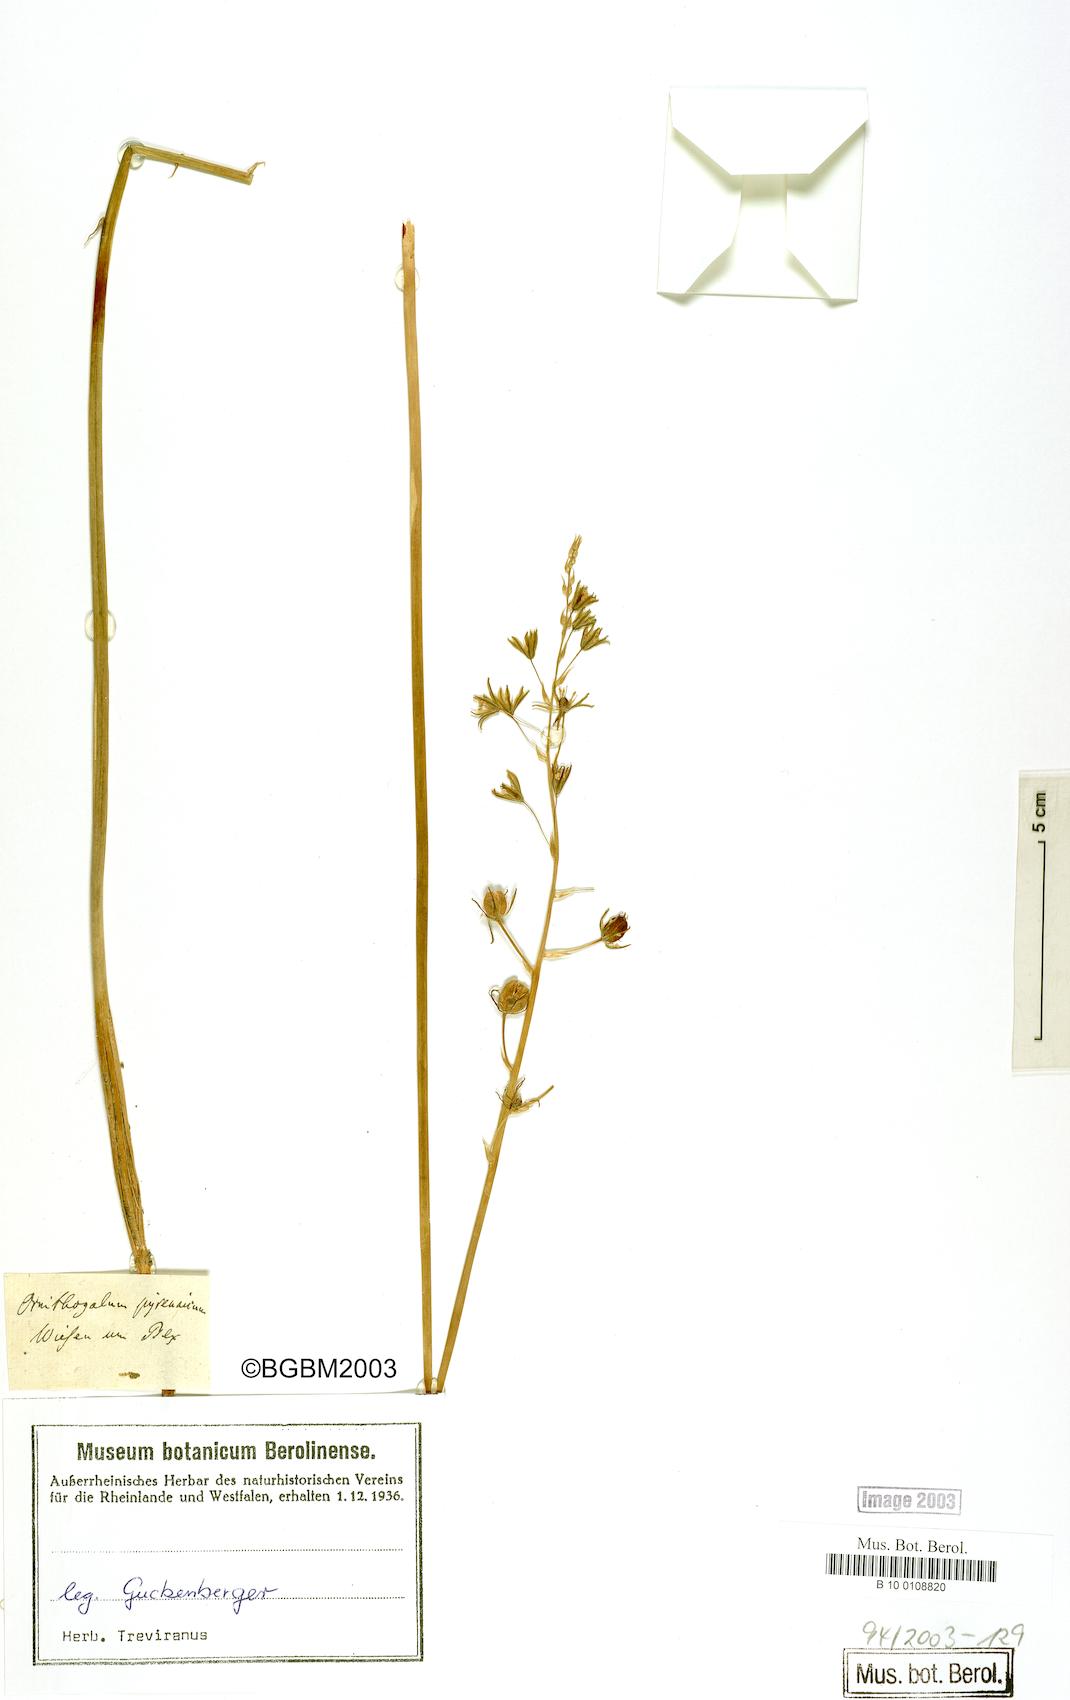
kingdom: Plantae
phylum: Tracheophyta
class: Liliopsida
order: Asparagales
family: Asparagaceae
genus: Ornithogalum
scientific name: Ornithogalum pyrenaicum
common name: Spiked star-of-bethlehem
